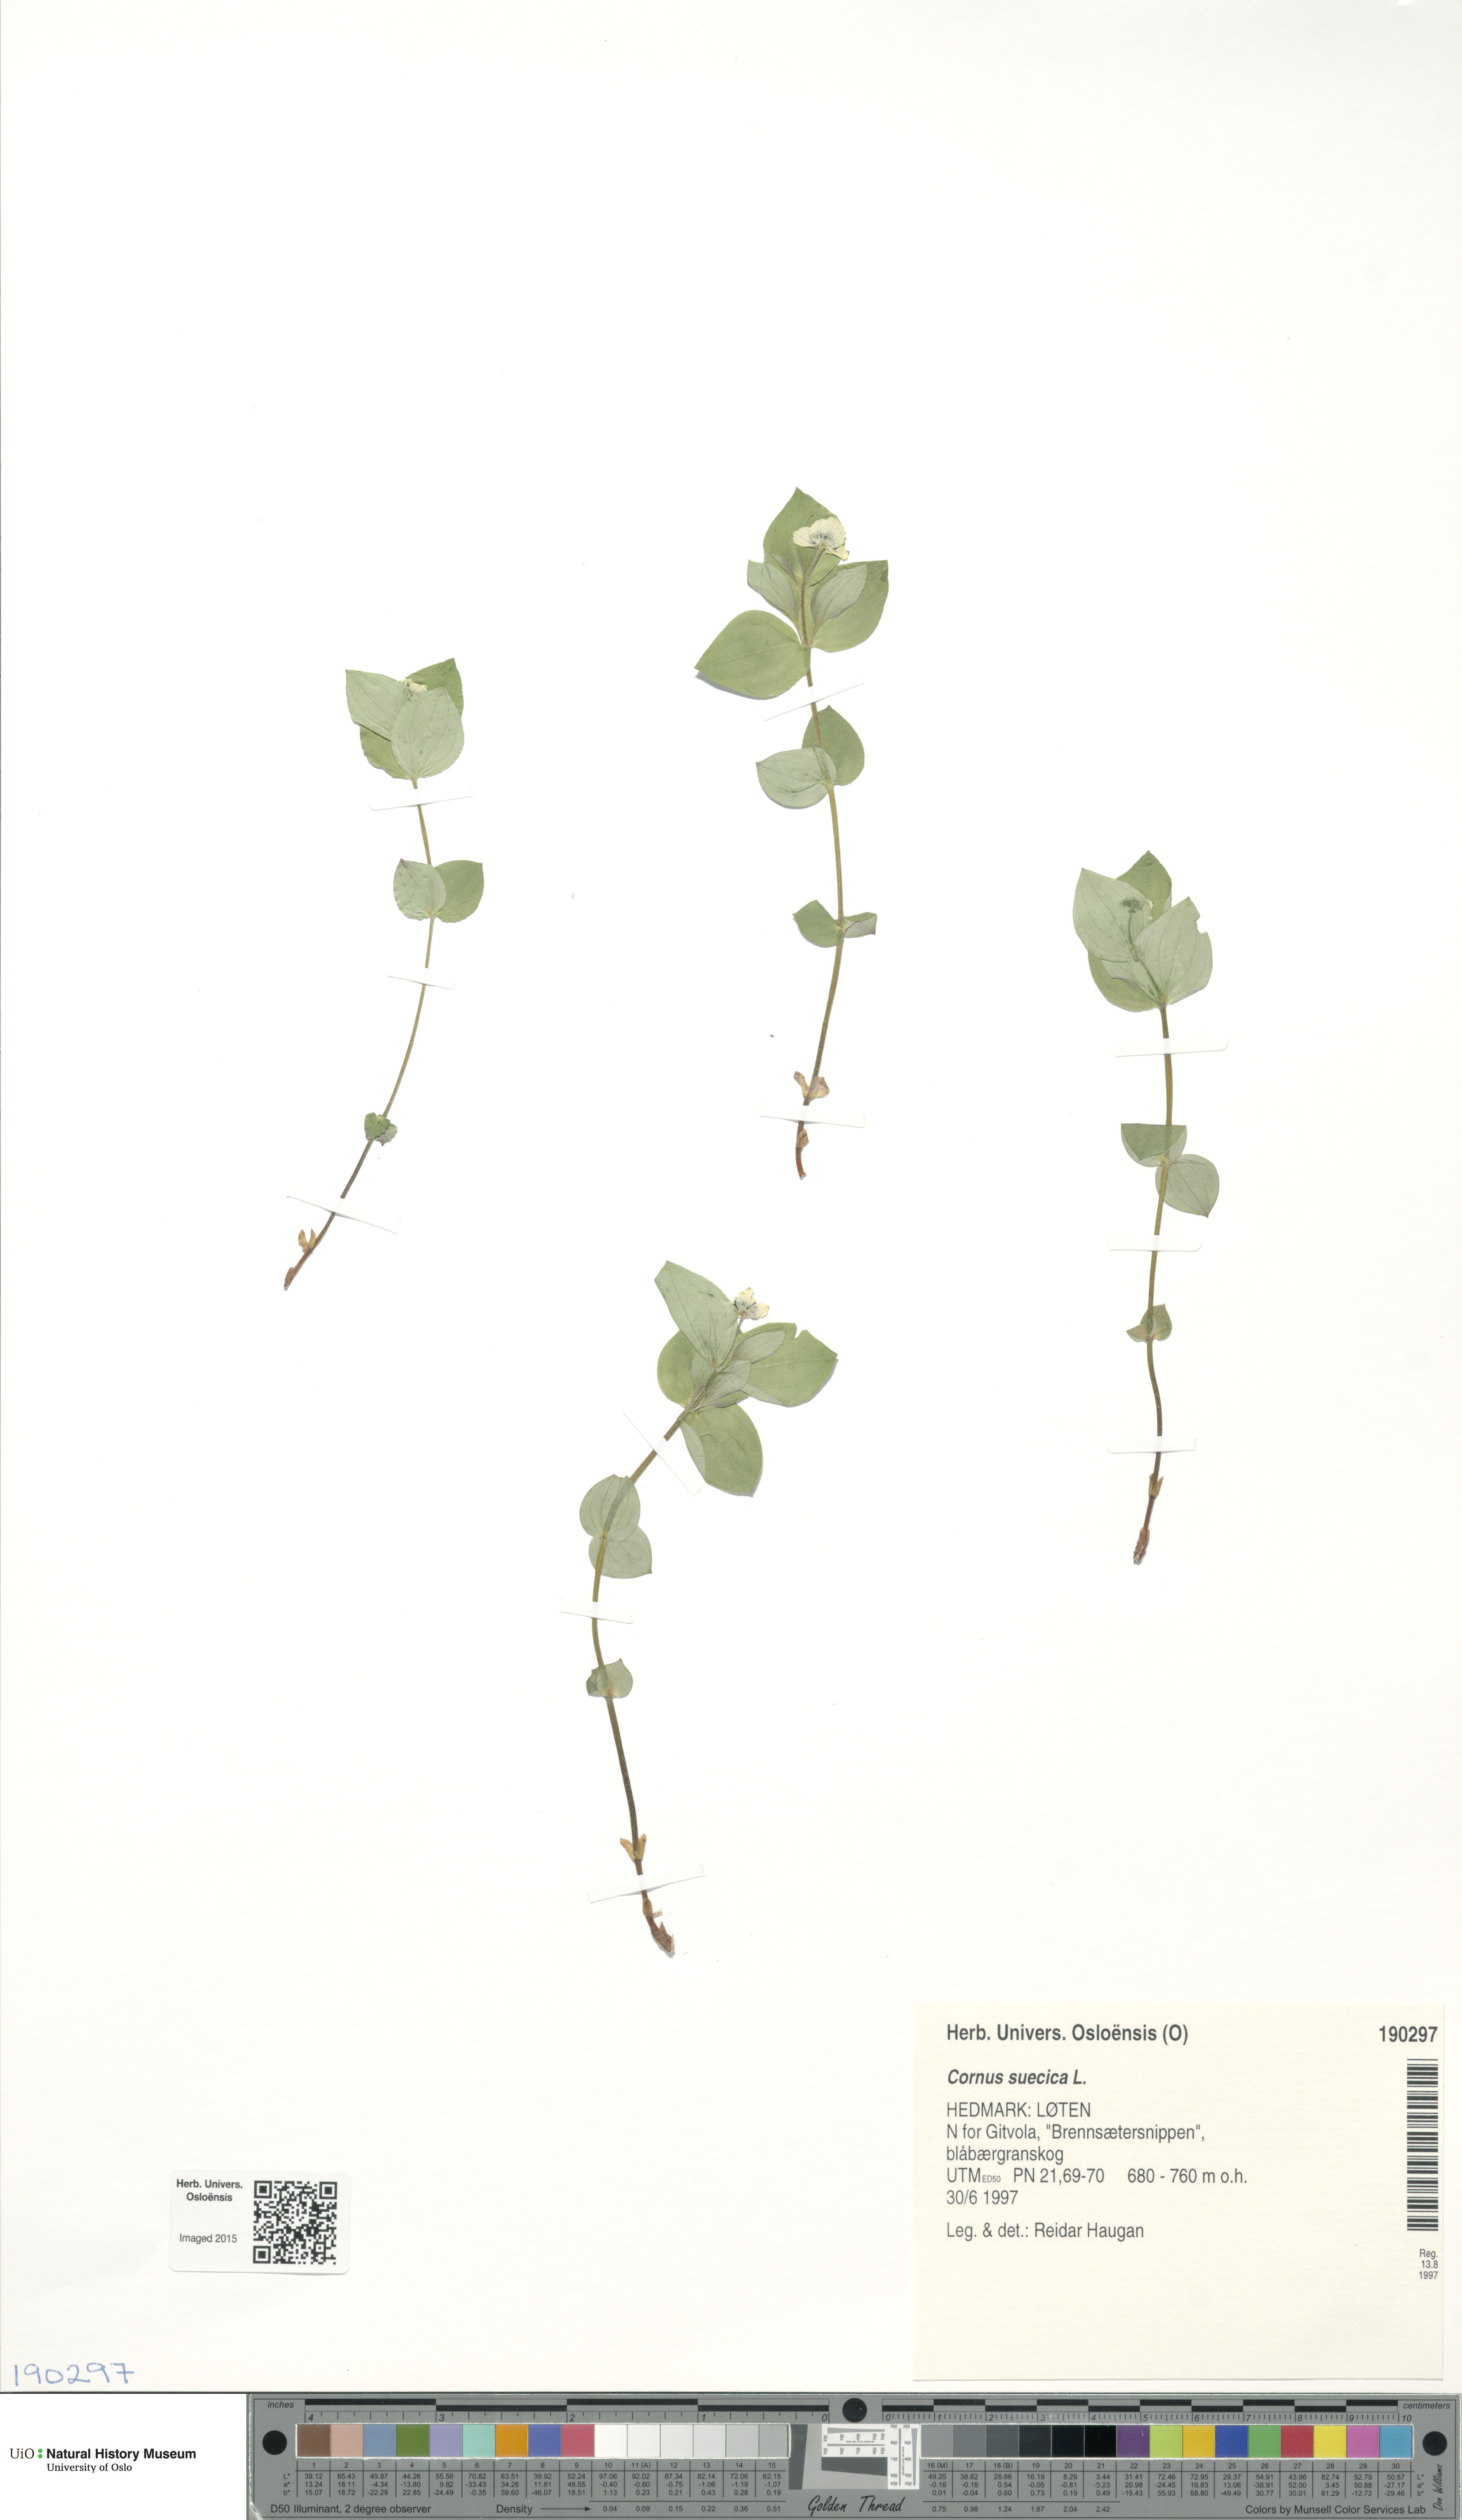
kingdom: Plantae
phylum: Tracheophyta
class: Magnoliopsida
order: Cornales
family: Cornaceae
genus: Cornus
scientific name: Cornus suecica
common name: Dwarf cornel
